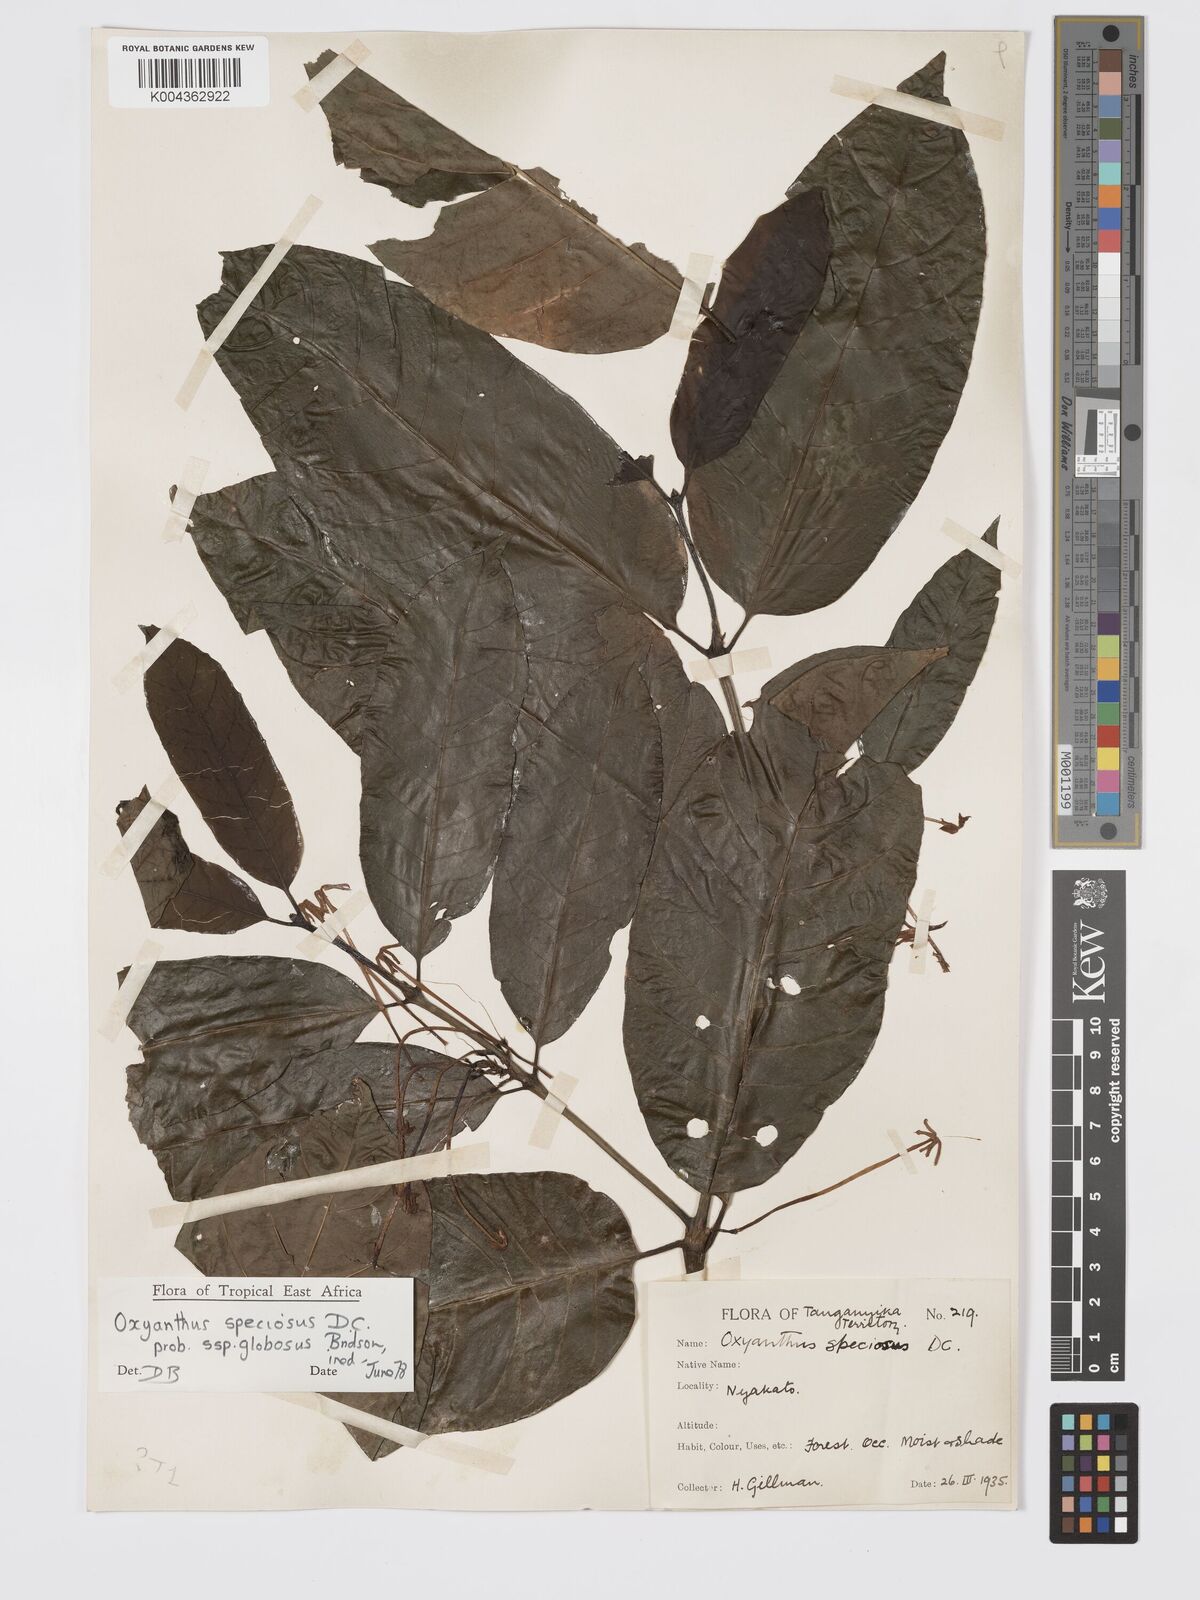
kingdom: Plantae
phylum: Tracheophyta
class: Magnoliopsida
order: Gentianales
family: Rubiaceae
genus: Oxyanthus
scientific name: Oxyanthus speciosus
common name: Whipstick loquat
